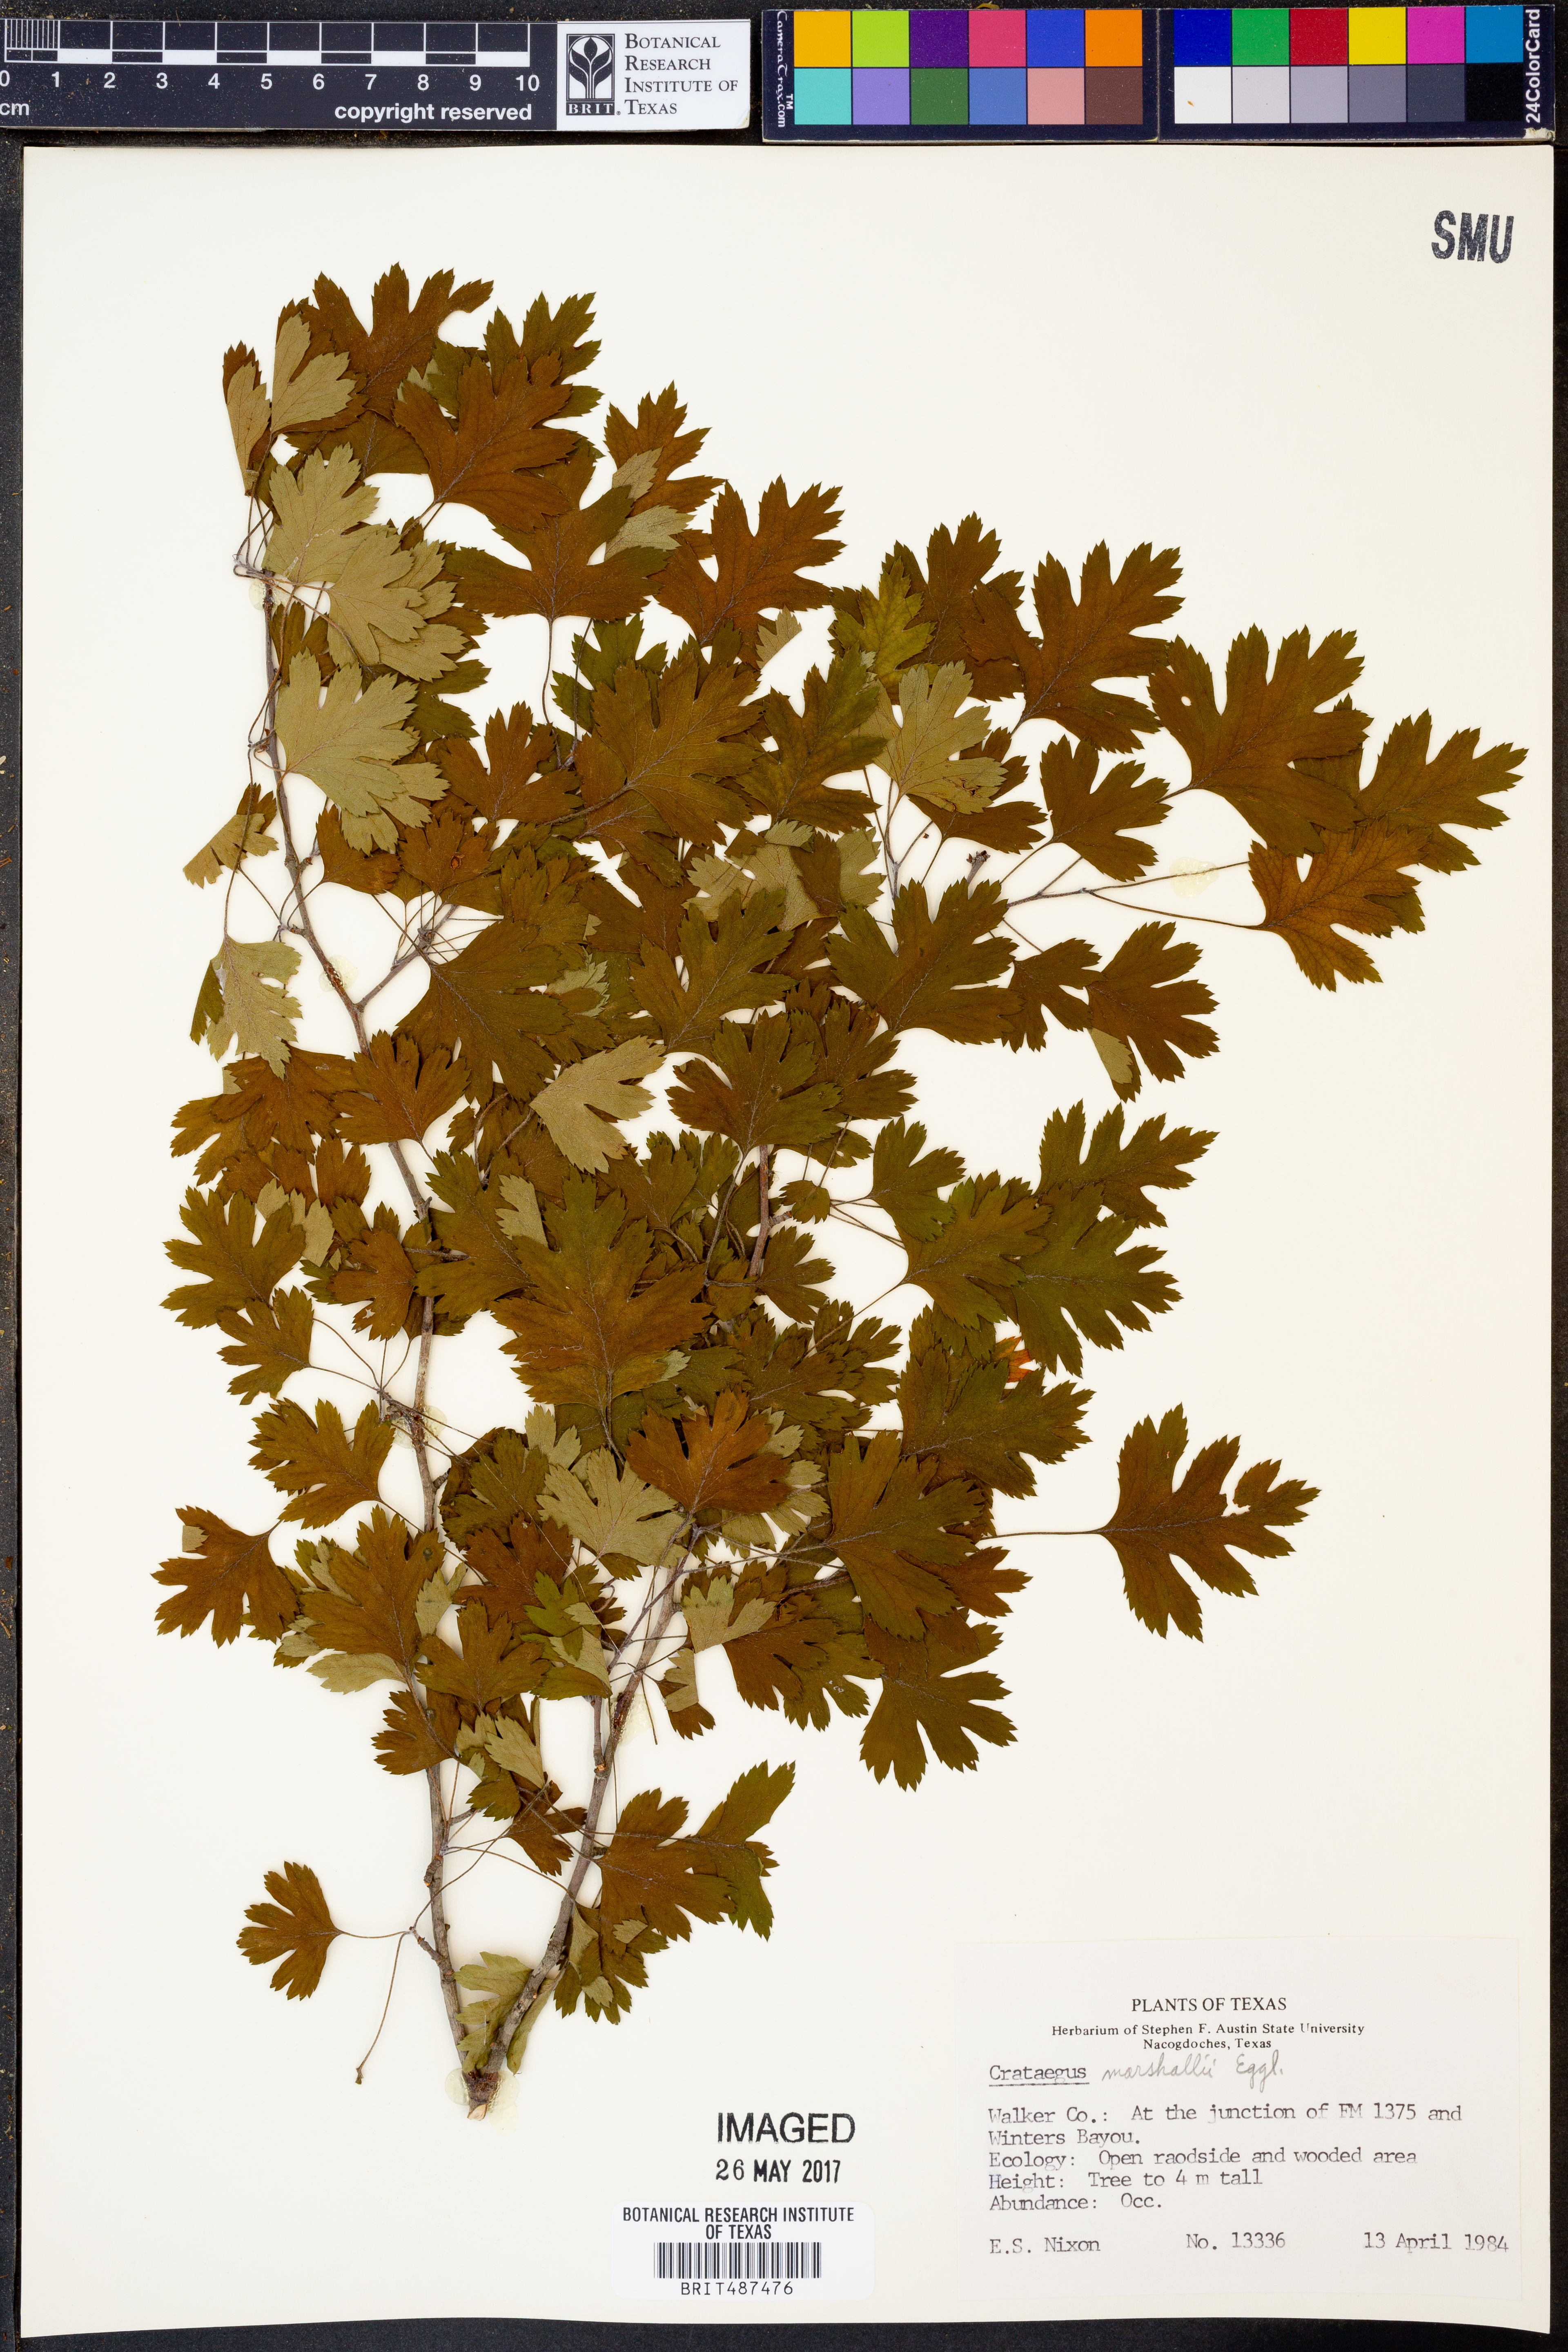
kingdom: Plantae
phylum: Tracheophyta
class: Magnoliopsida
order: Rosales
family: Rosaceae
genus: Crataegus
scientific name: Crataegus marshallii
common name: Parsley-hawthorn
